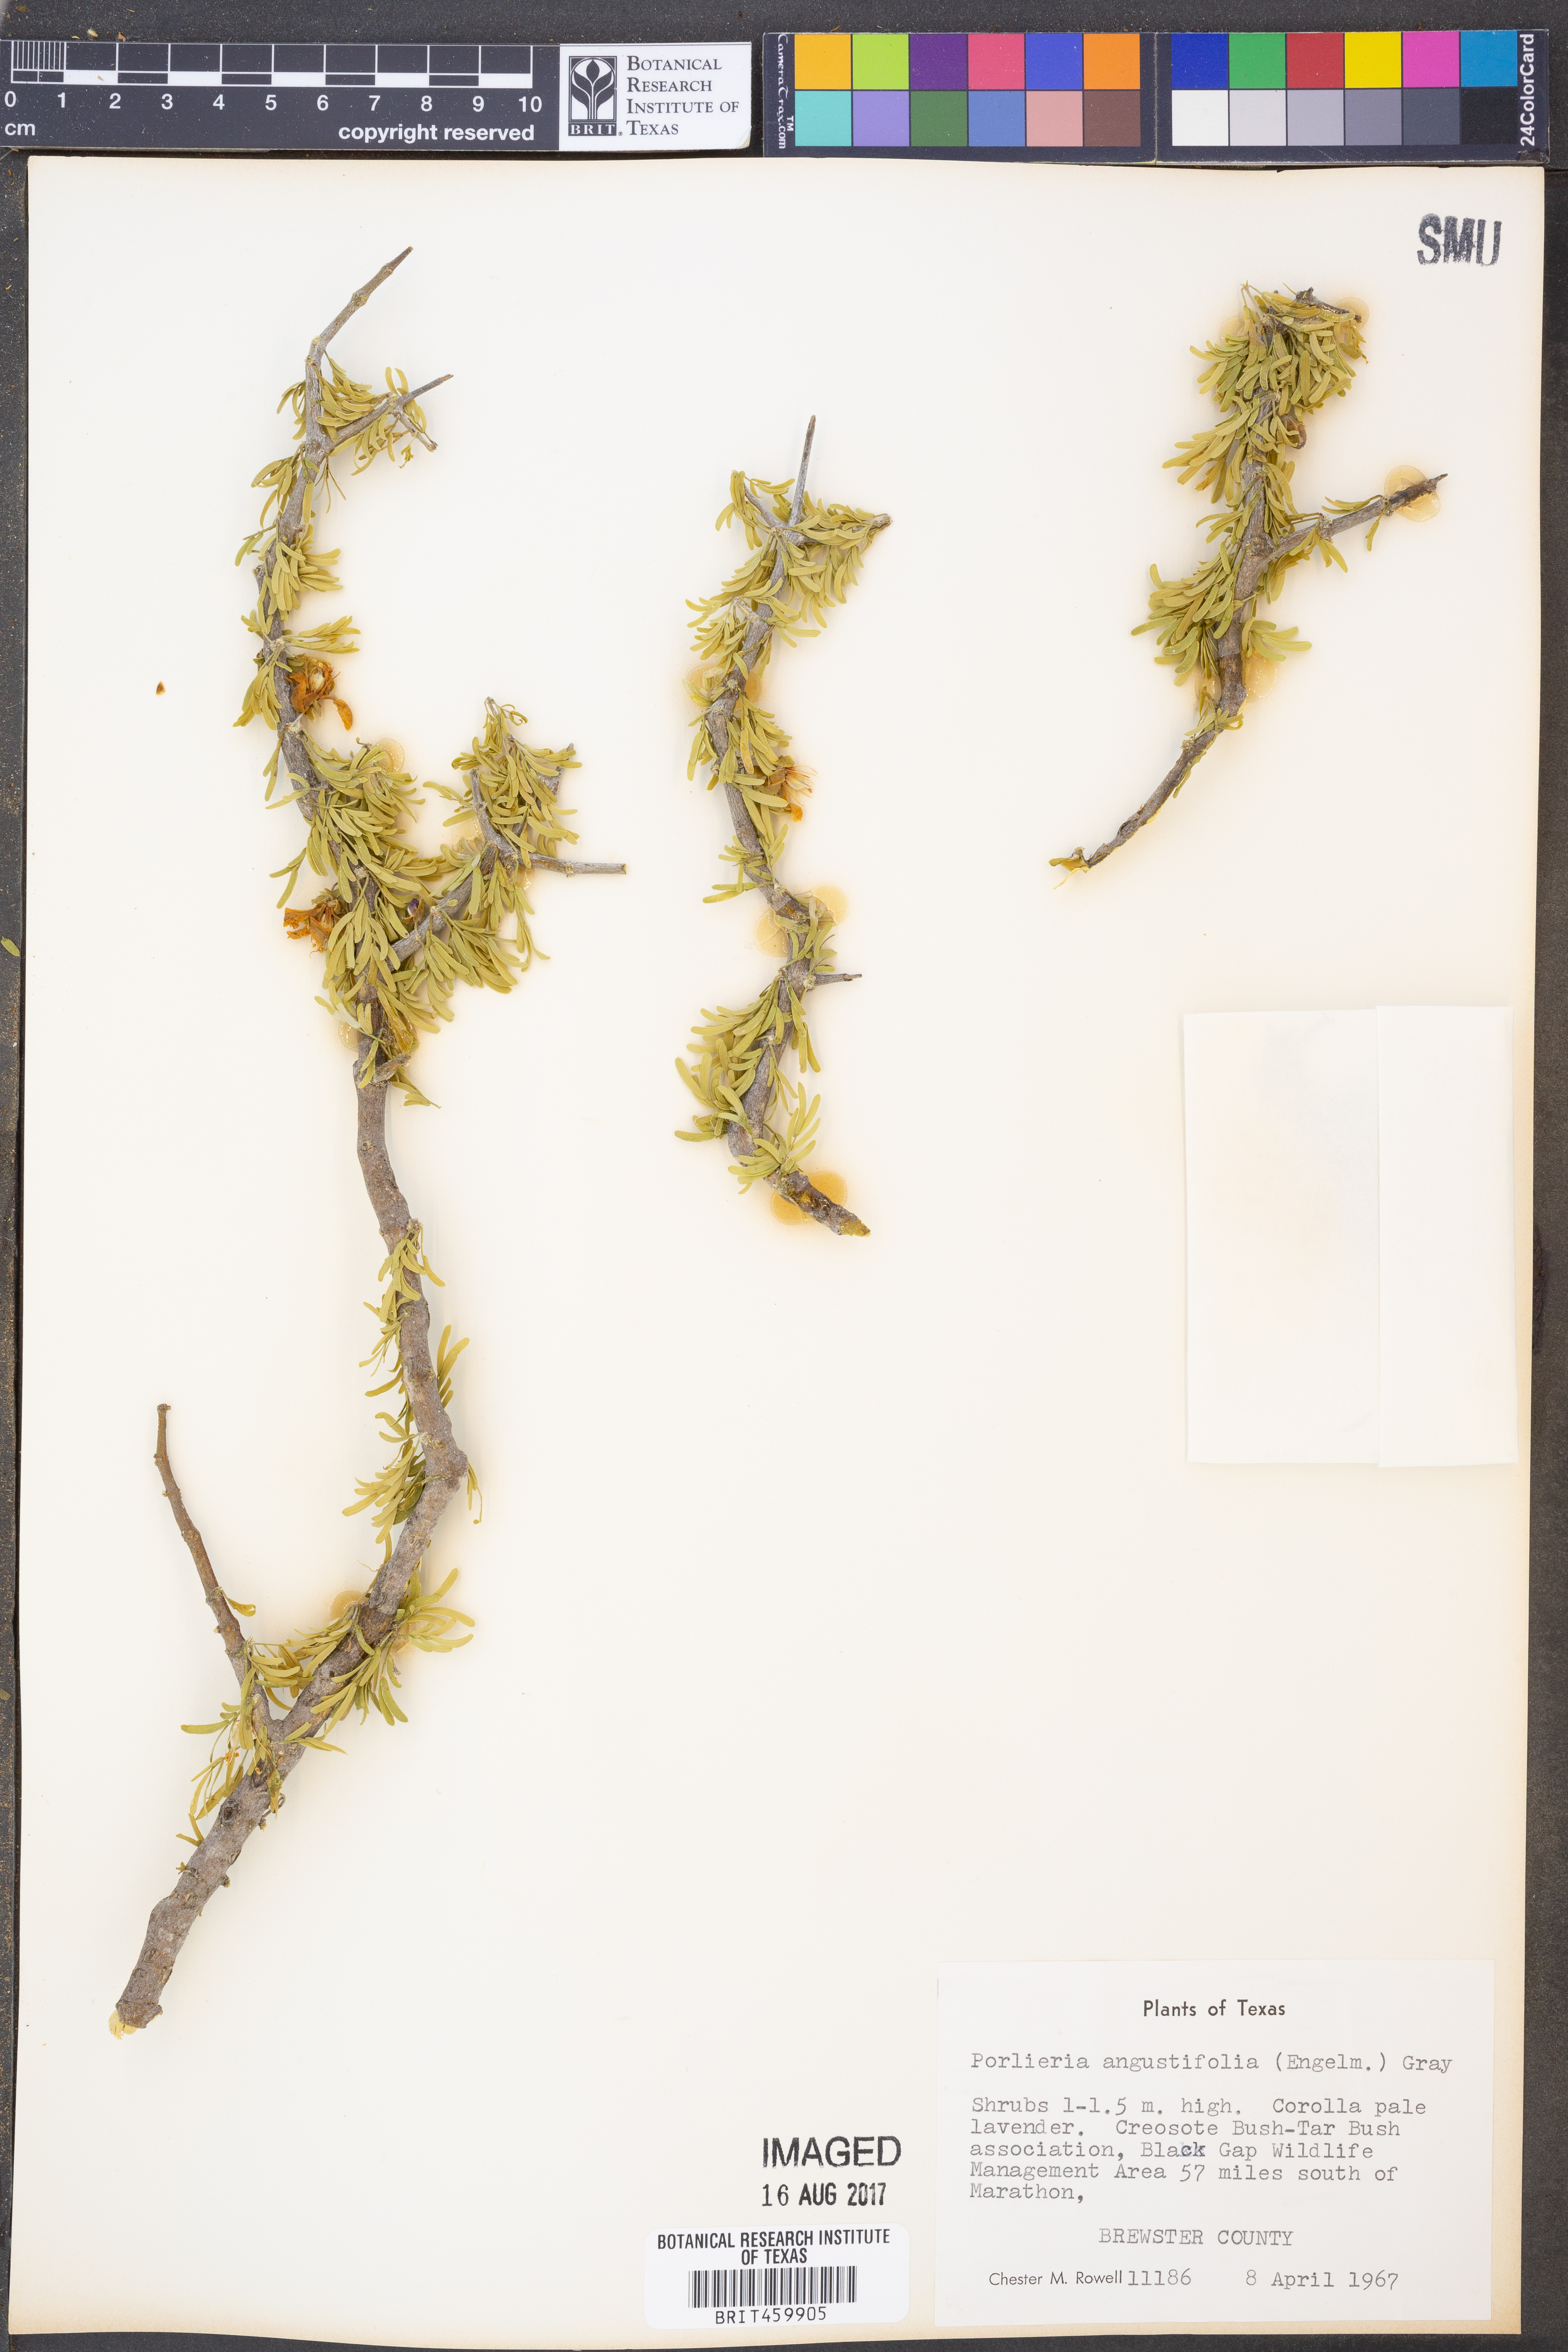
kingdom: Plantae
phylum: Tracheophyta
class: Magnoliopsida
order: Zygophyllales
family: Zygophyllaceae
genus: Porlieria
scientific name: Porlieria angustifolia
